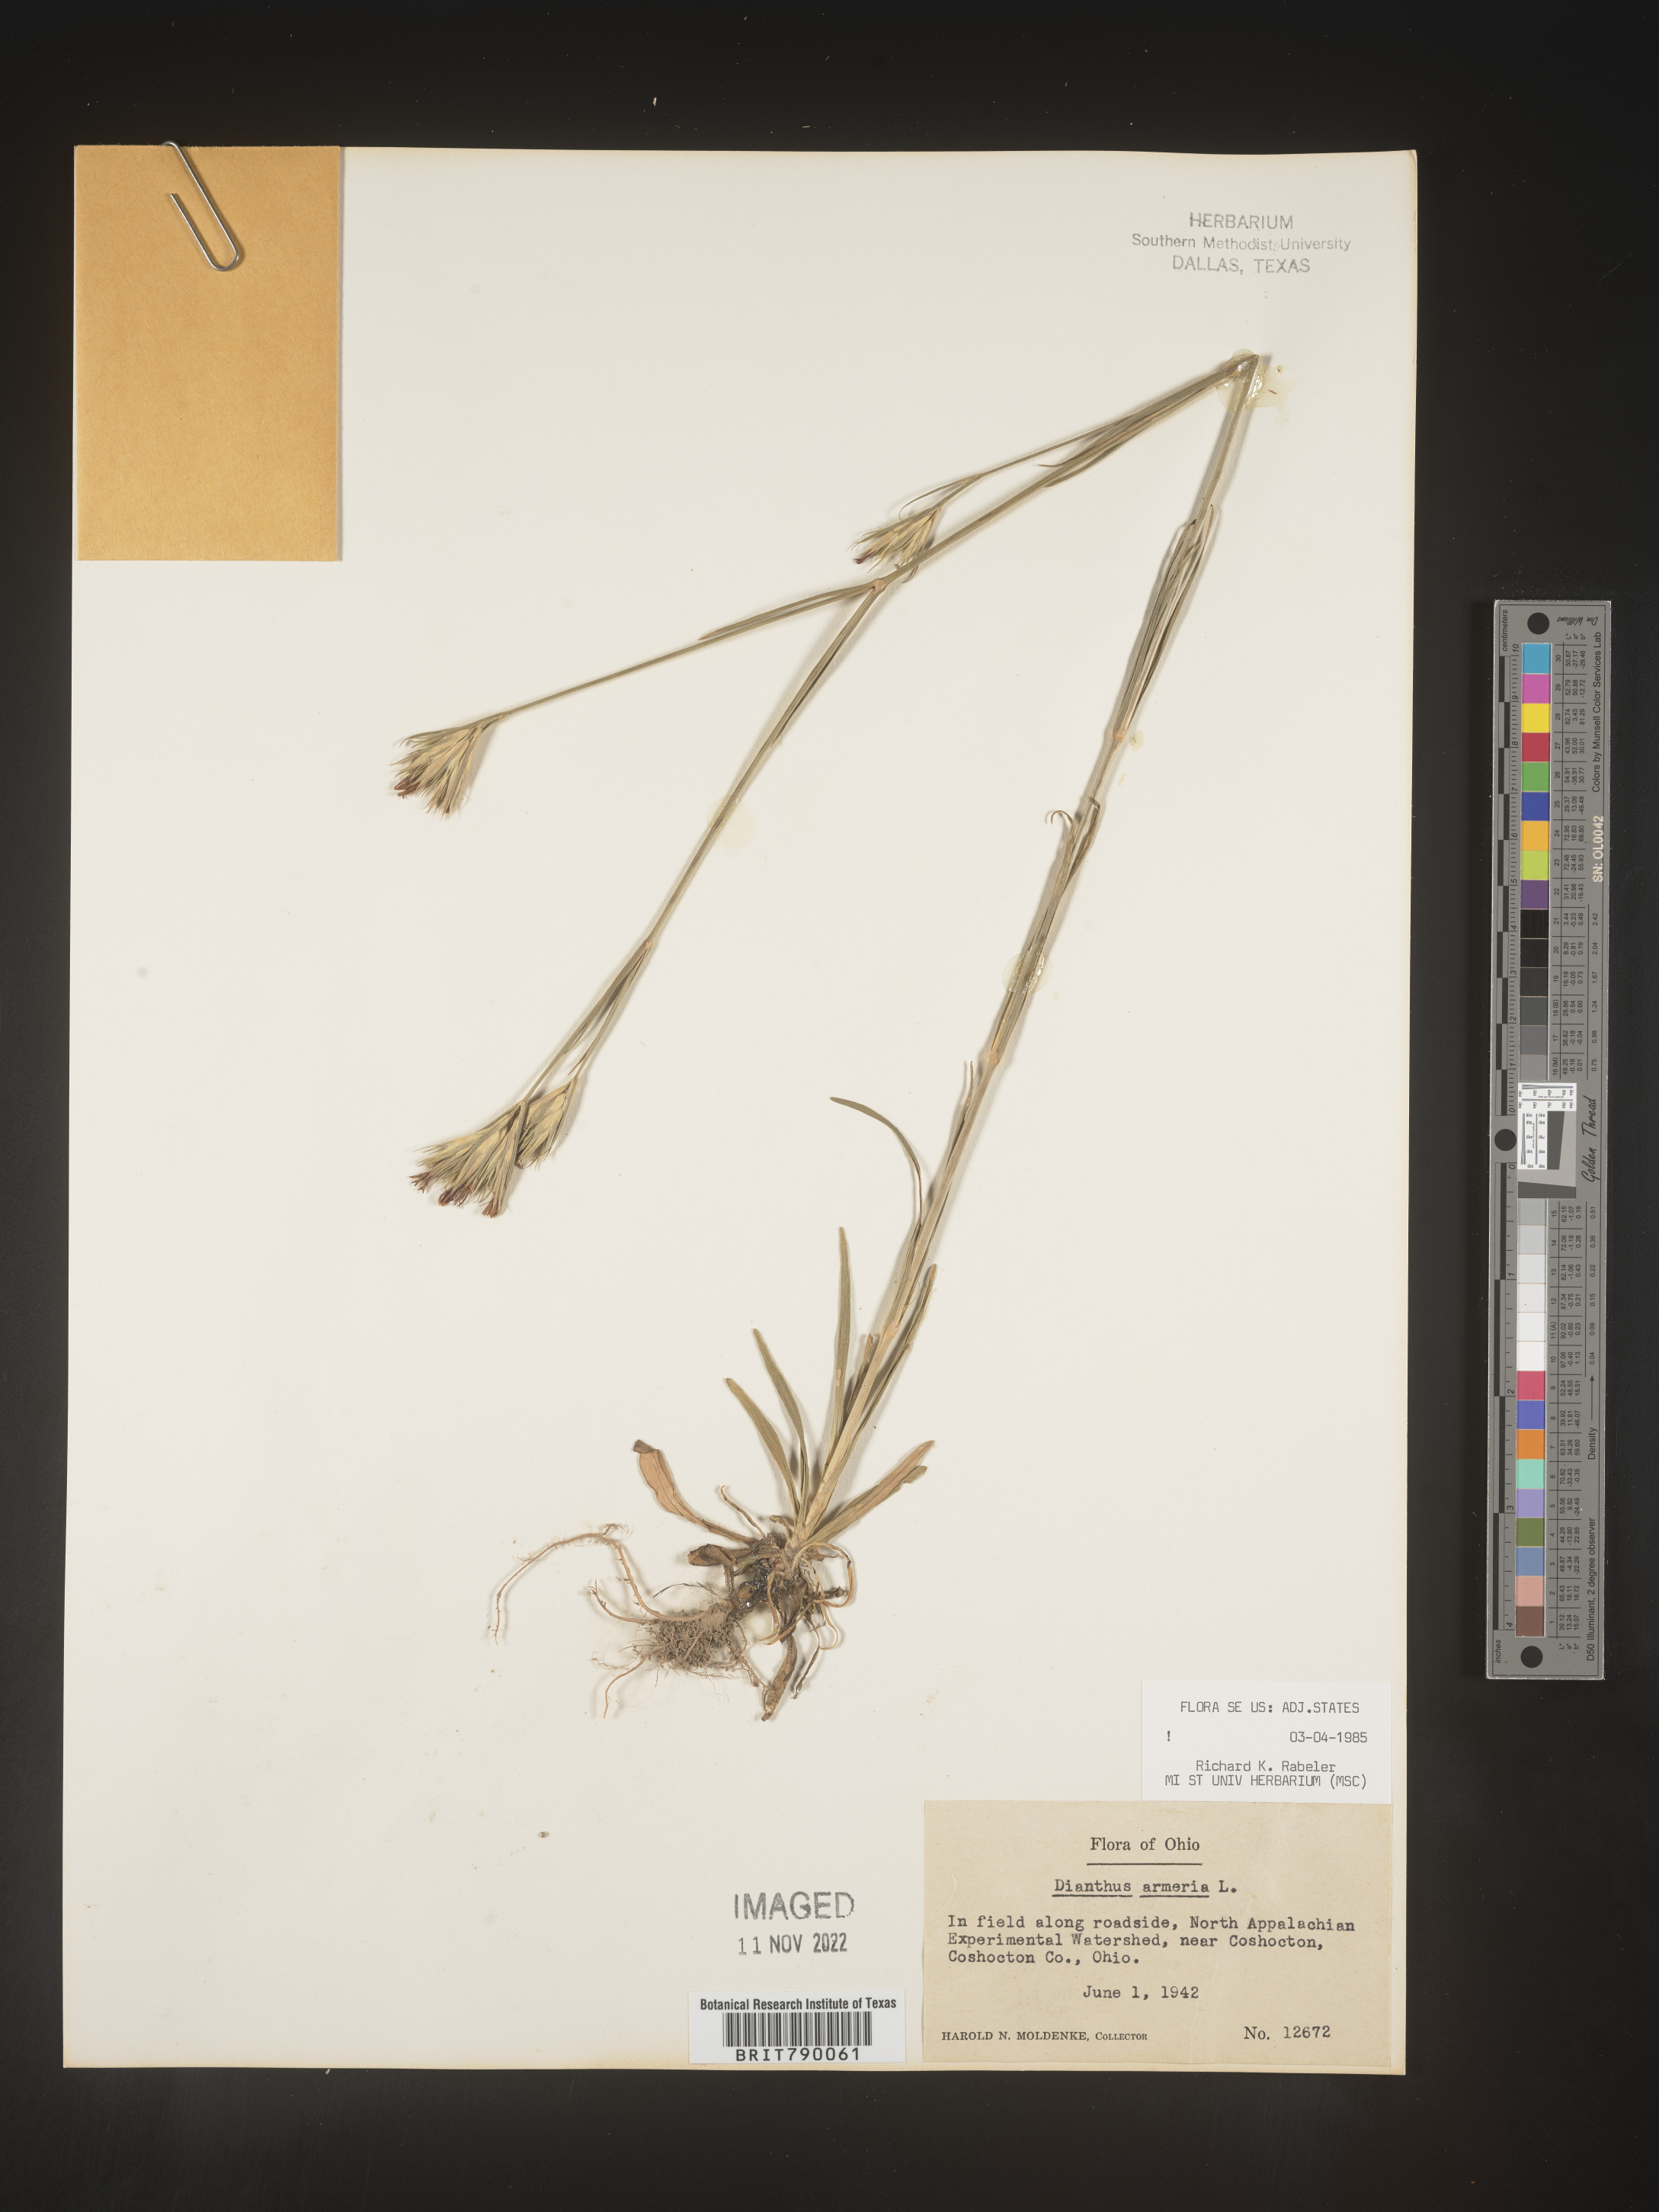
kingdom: Plantae
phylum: Tracheophyta
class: Magnoliopsida
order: Caryophyllales
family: Caryophyllaceae
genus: Dianthus
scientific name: Dianthus armeria
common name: Deptford pink
